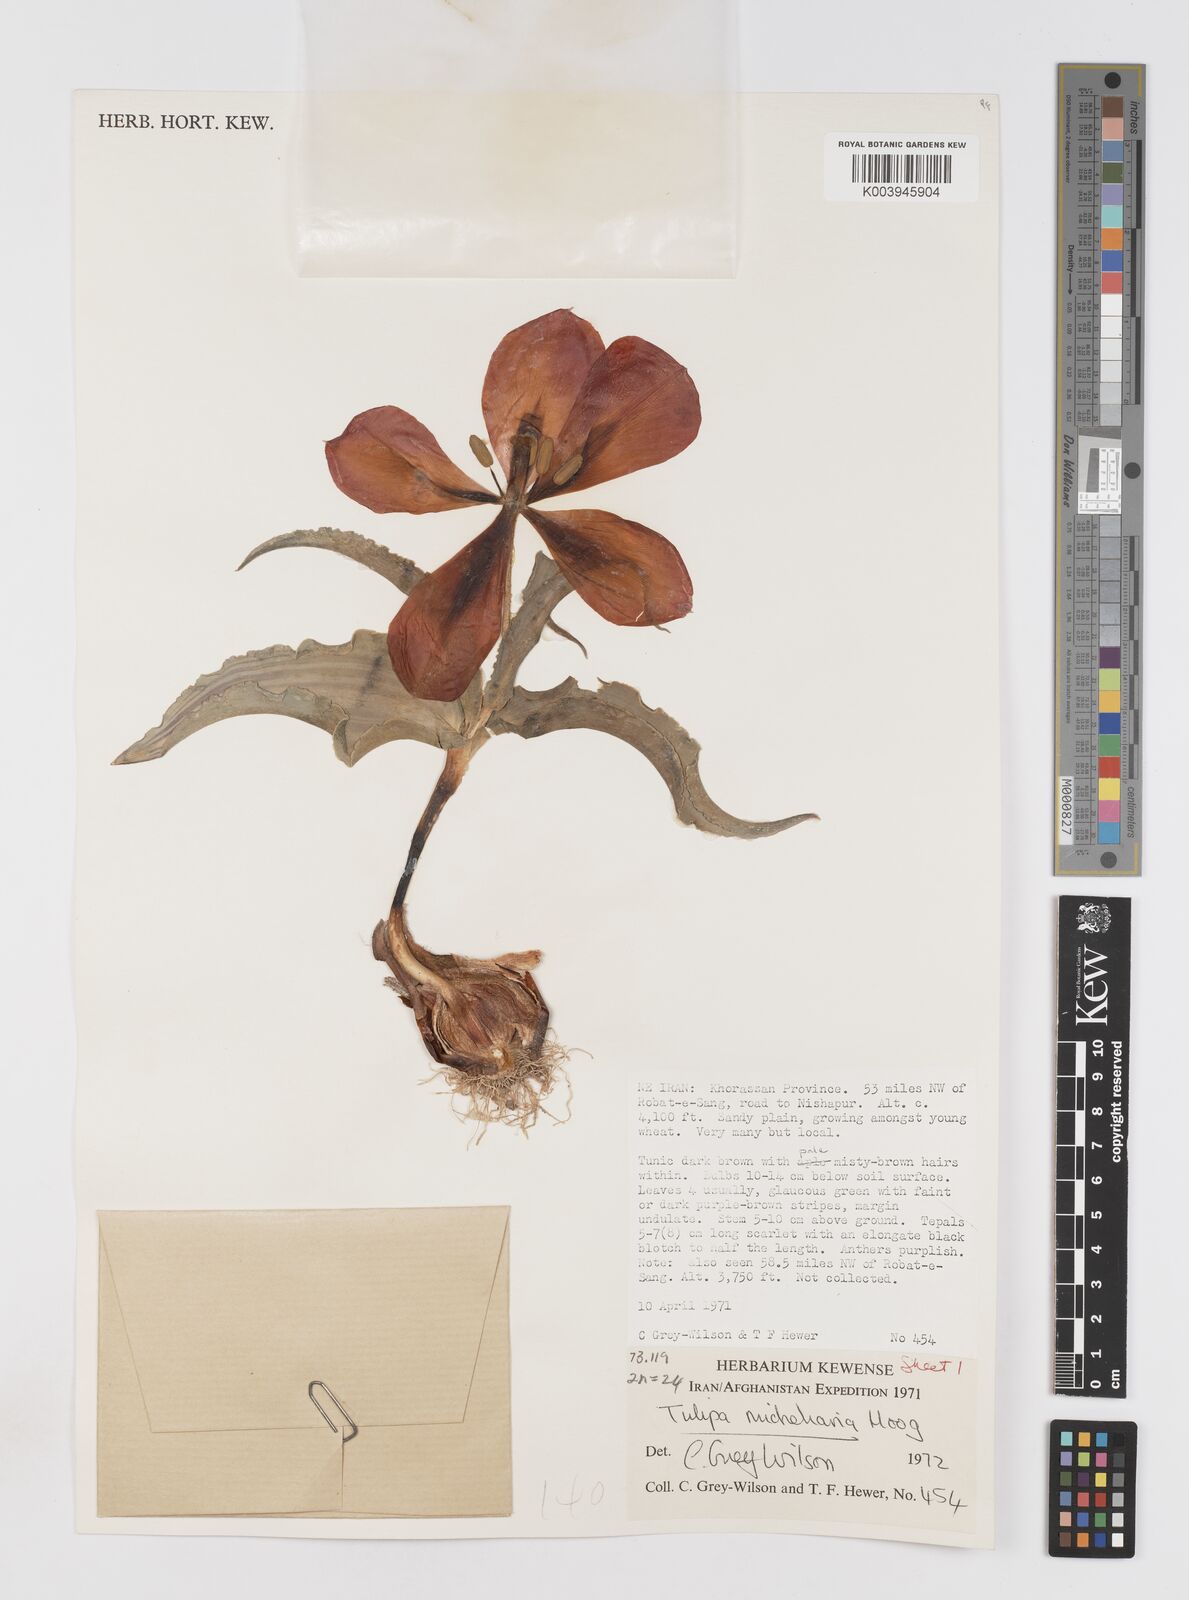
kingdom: Plantae
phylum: Tracheophyta
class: Liliopsida
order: Liliales
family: Liliaceae
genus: Tulipa
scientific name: Tulipa undulatifolia
